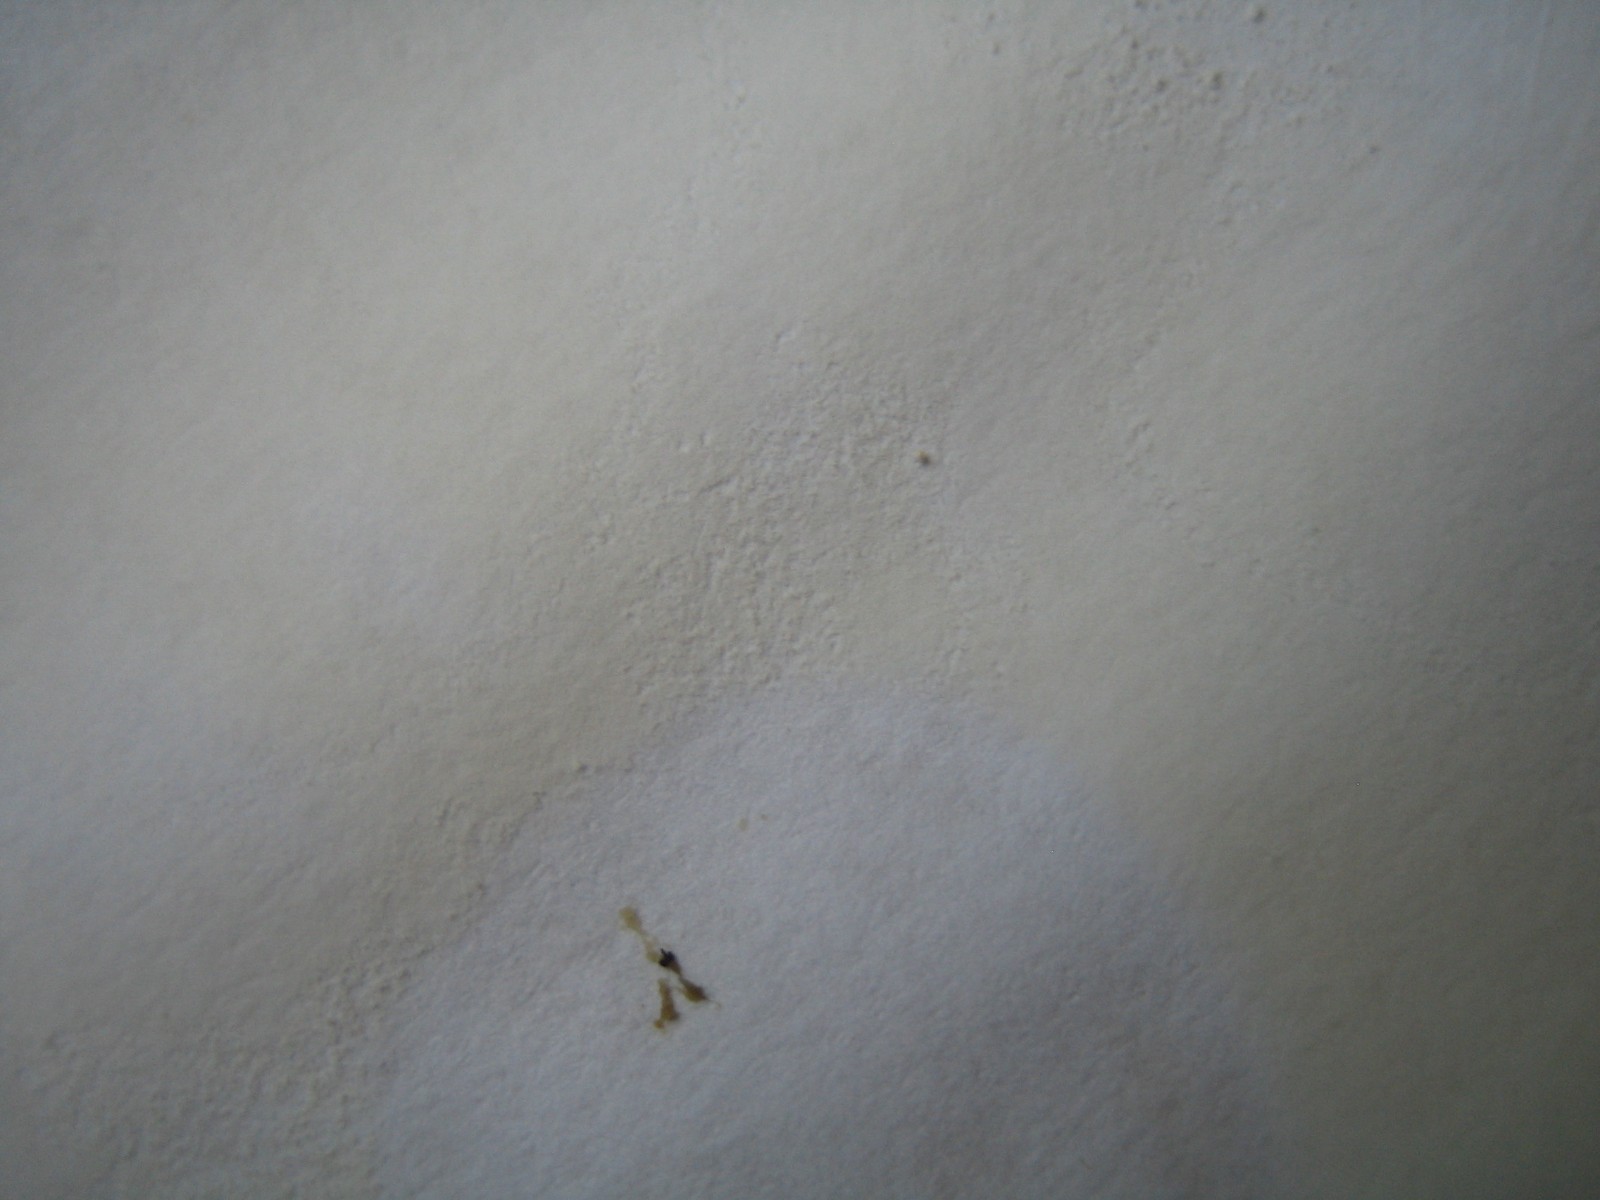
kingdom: Fungi
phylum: Basidiomycota
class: Agaricomycetes
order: Russulales
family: Russulaceae
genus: Russula
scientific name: Russula
